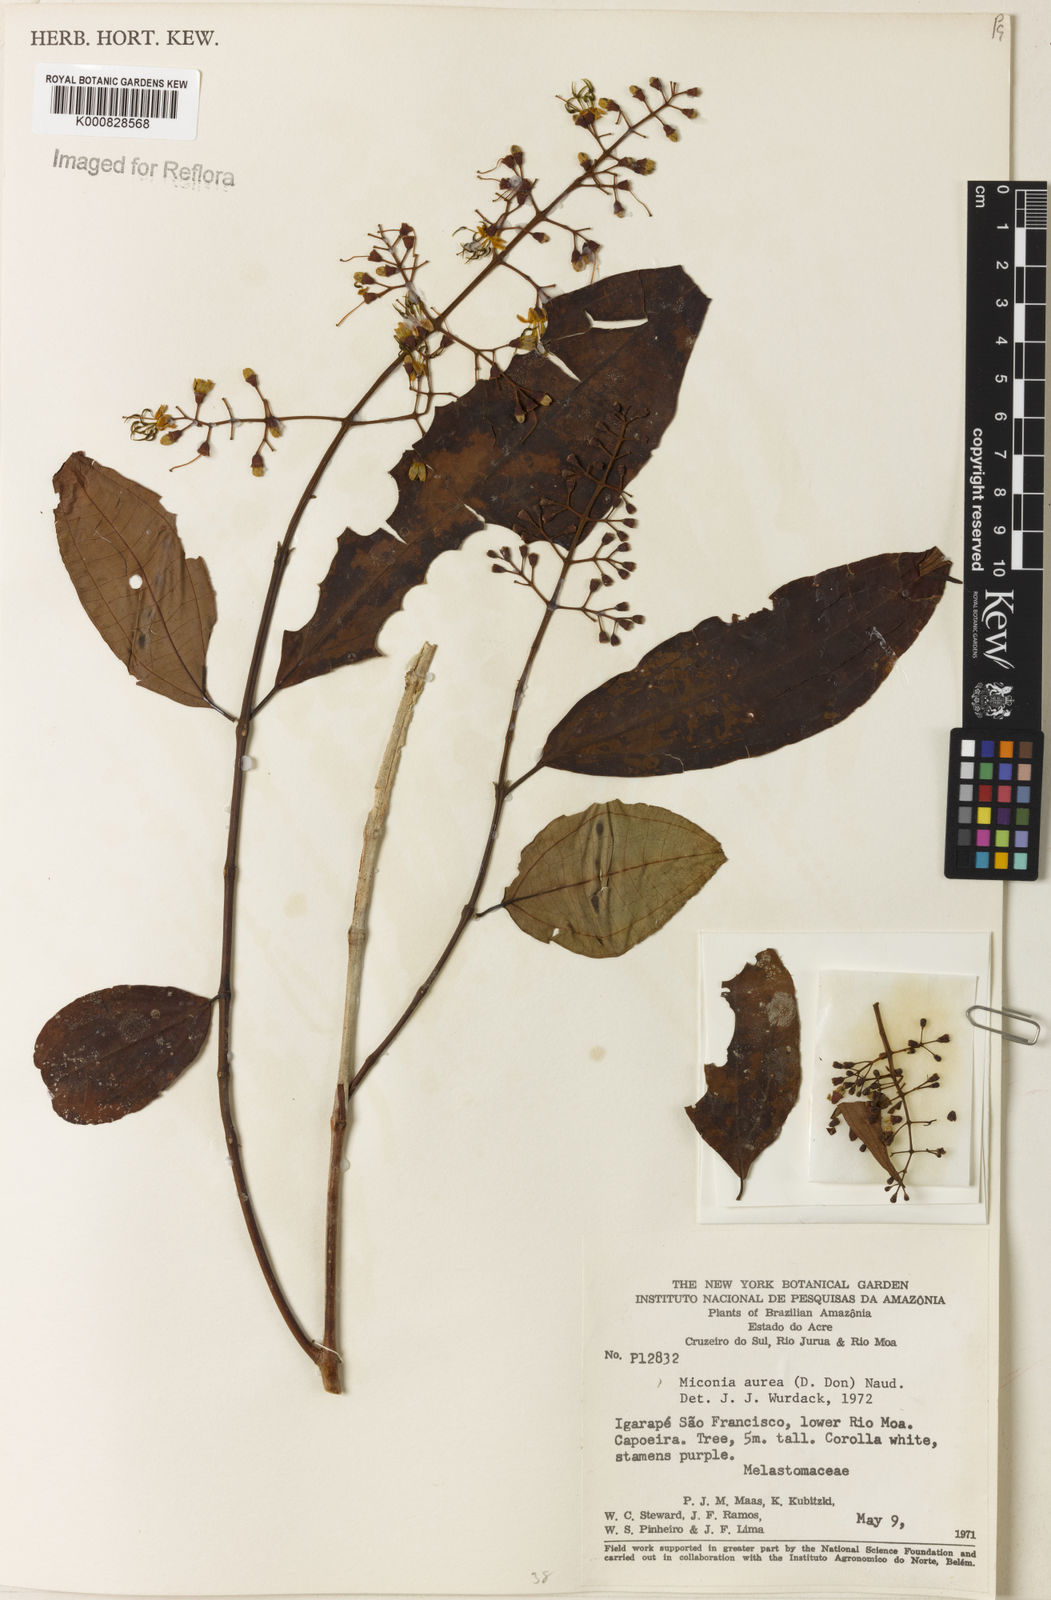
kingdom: Plantae
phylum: Tracheophyta
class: Magnoliopsida
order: Myrtales
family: Melastomataceae
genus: Miconia
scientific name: Miconia aurea
